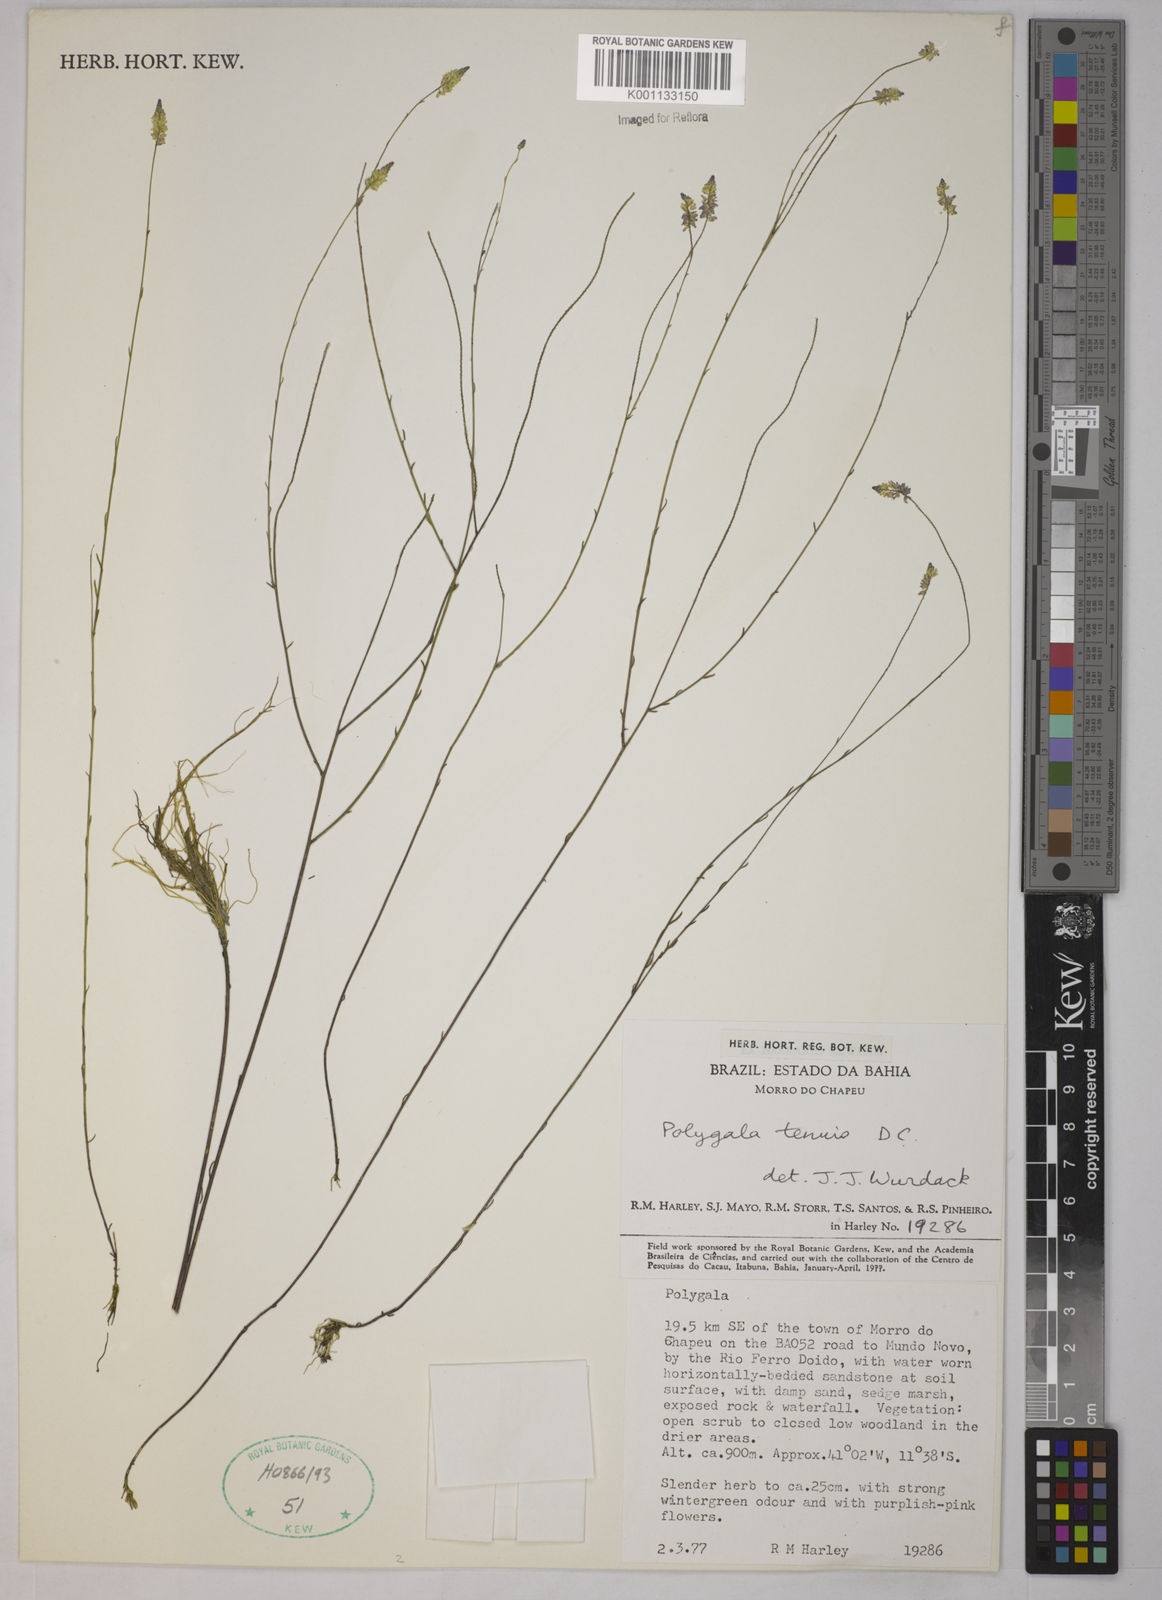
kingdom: Plantae
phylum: Tracheophyta
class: Magnoliopsida
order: Fabales
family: Polygalaceae
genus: Polygala
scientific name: Polygala tenuis
